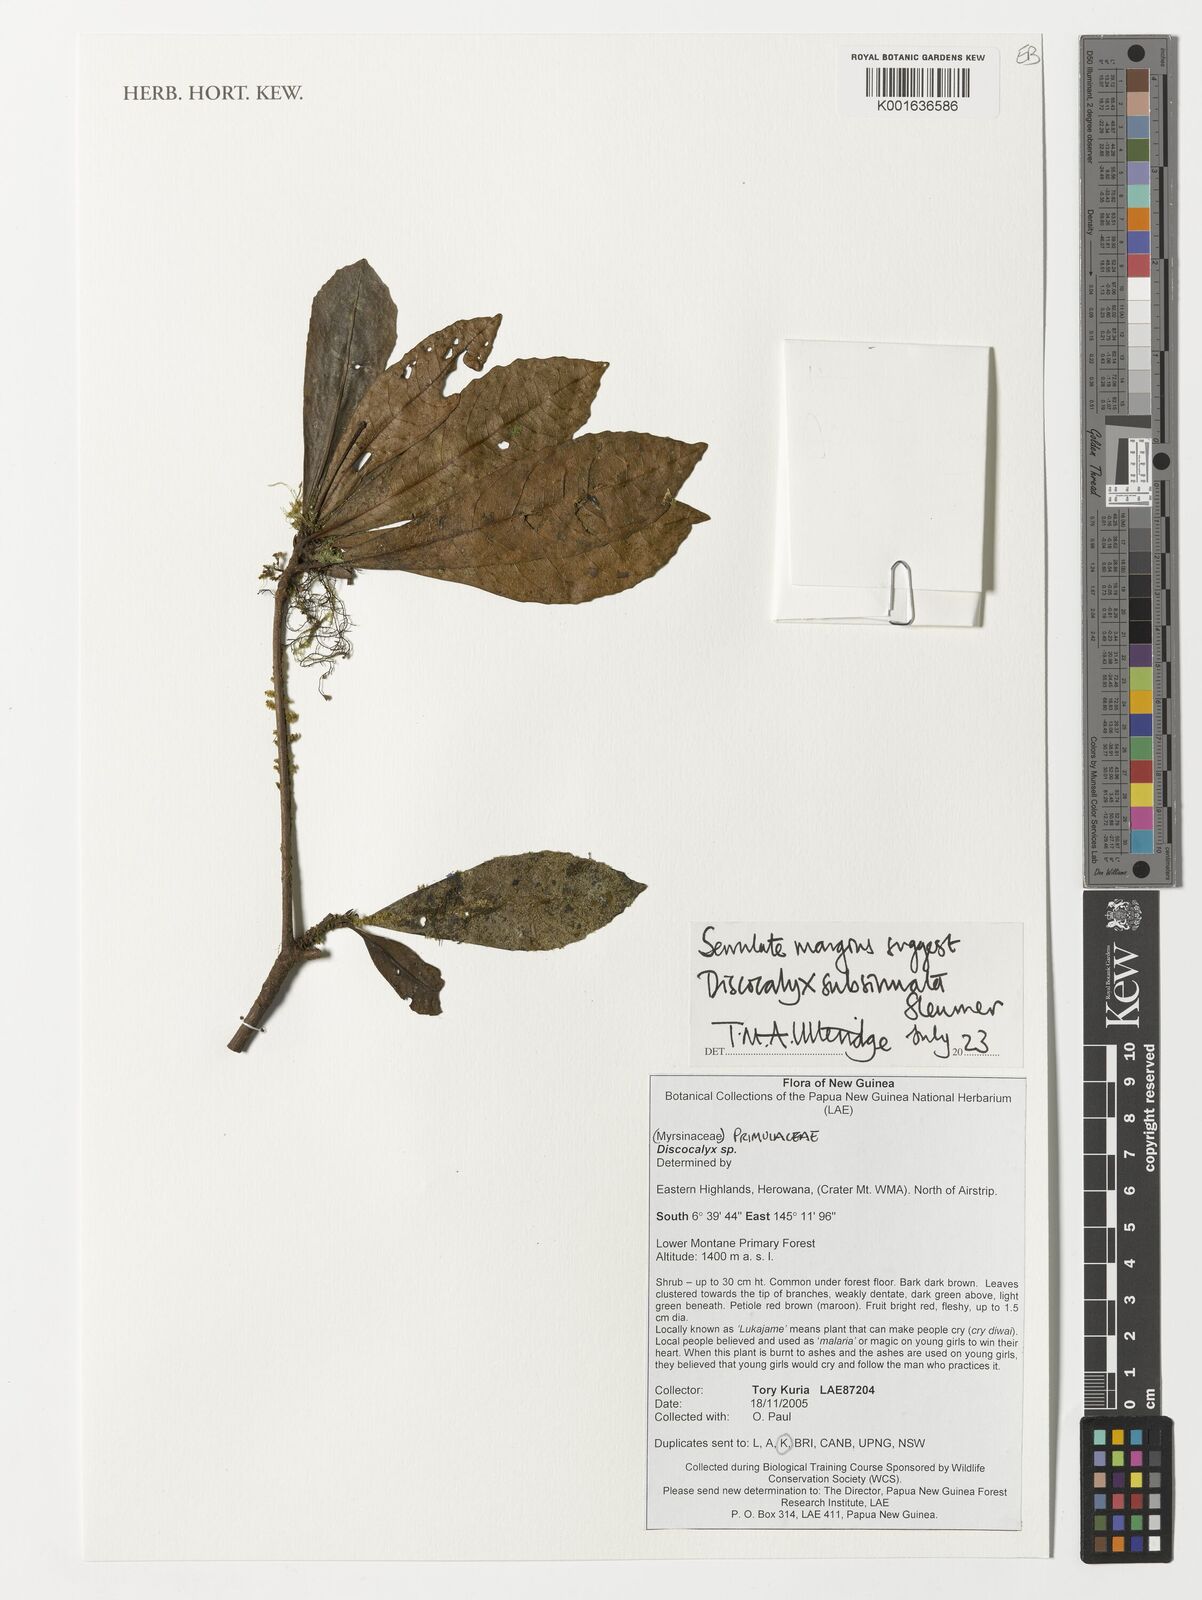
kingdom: Plantae
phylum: Tracheophyta
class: Magnoliopsida
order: Ericales
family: Primulaceae
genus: Discocalyx
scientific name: Discocalyx subsinuata
